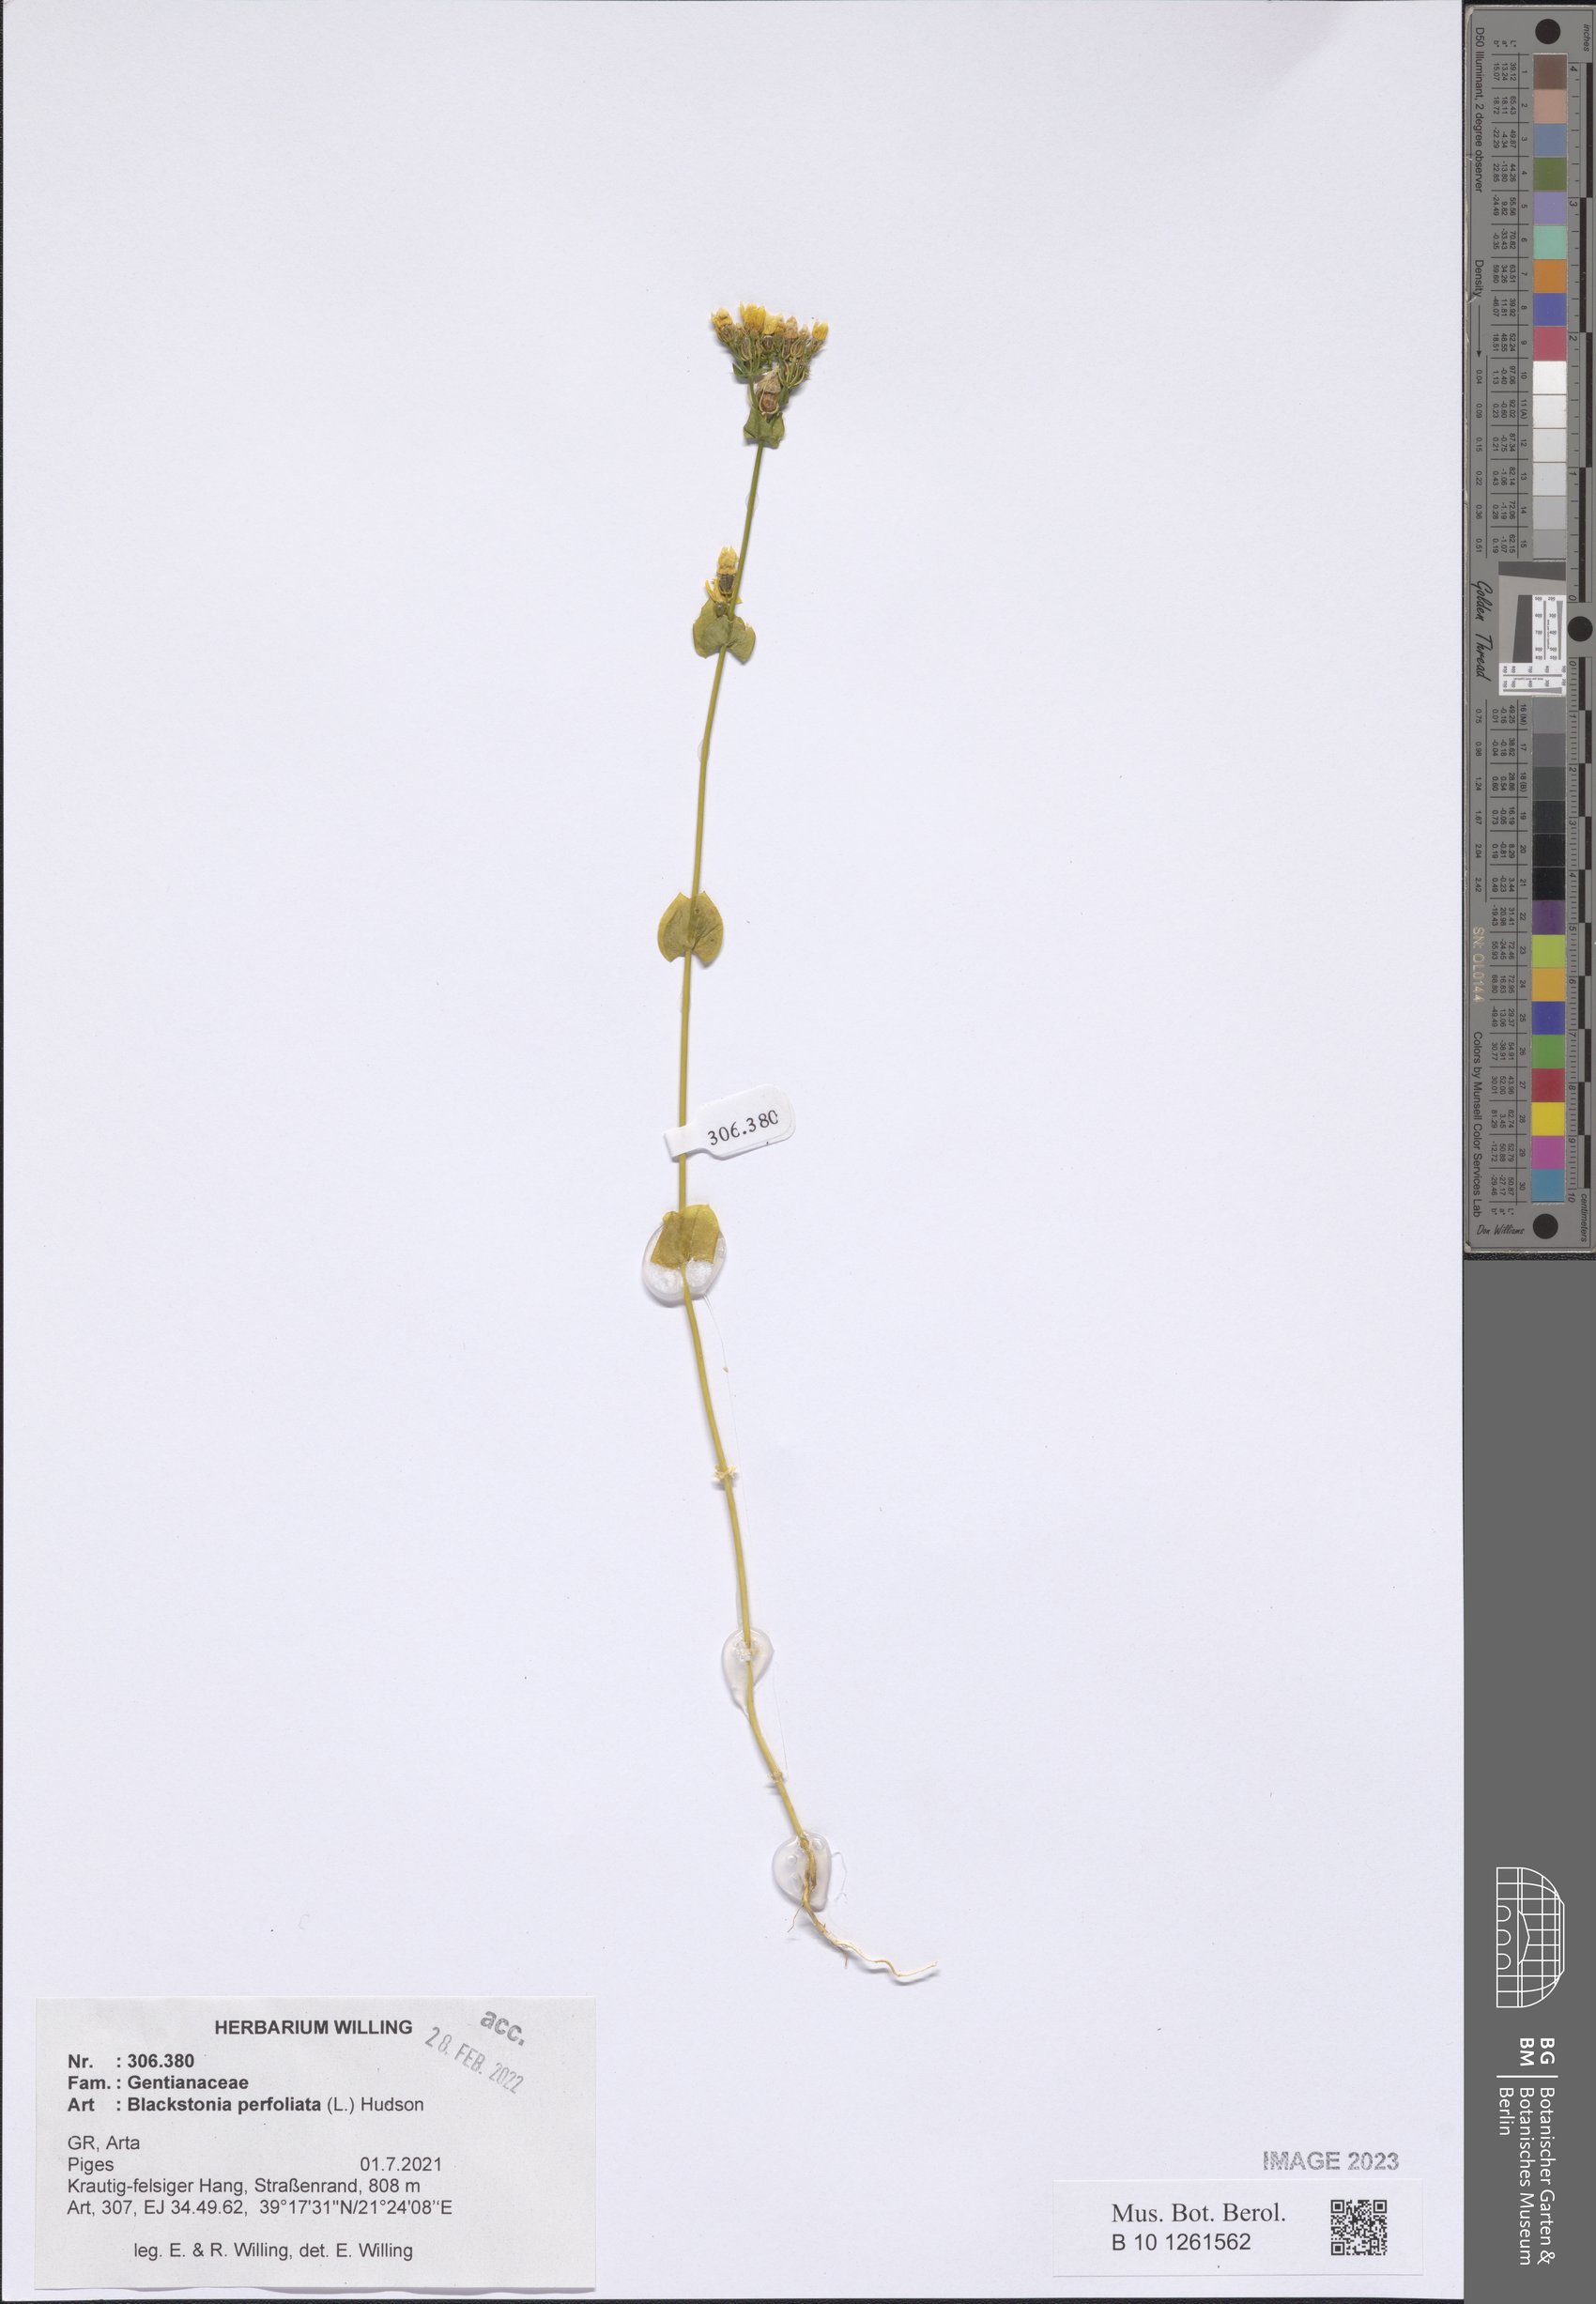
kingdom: Plantae
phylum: Tracheophyta
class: Magnoliopsida
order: Gentianales
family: Gentianaceae
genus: Blackstonia
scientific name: Blackstonia perfoliata
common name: Yellow-wort
